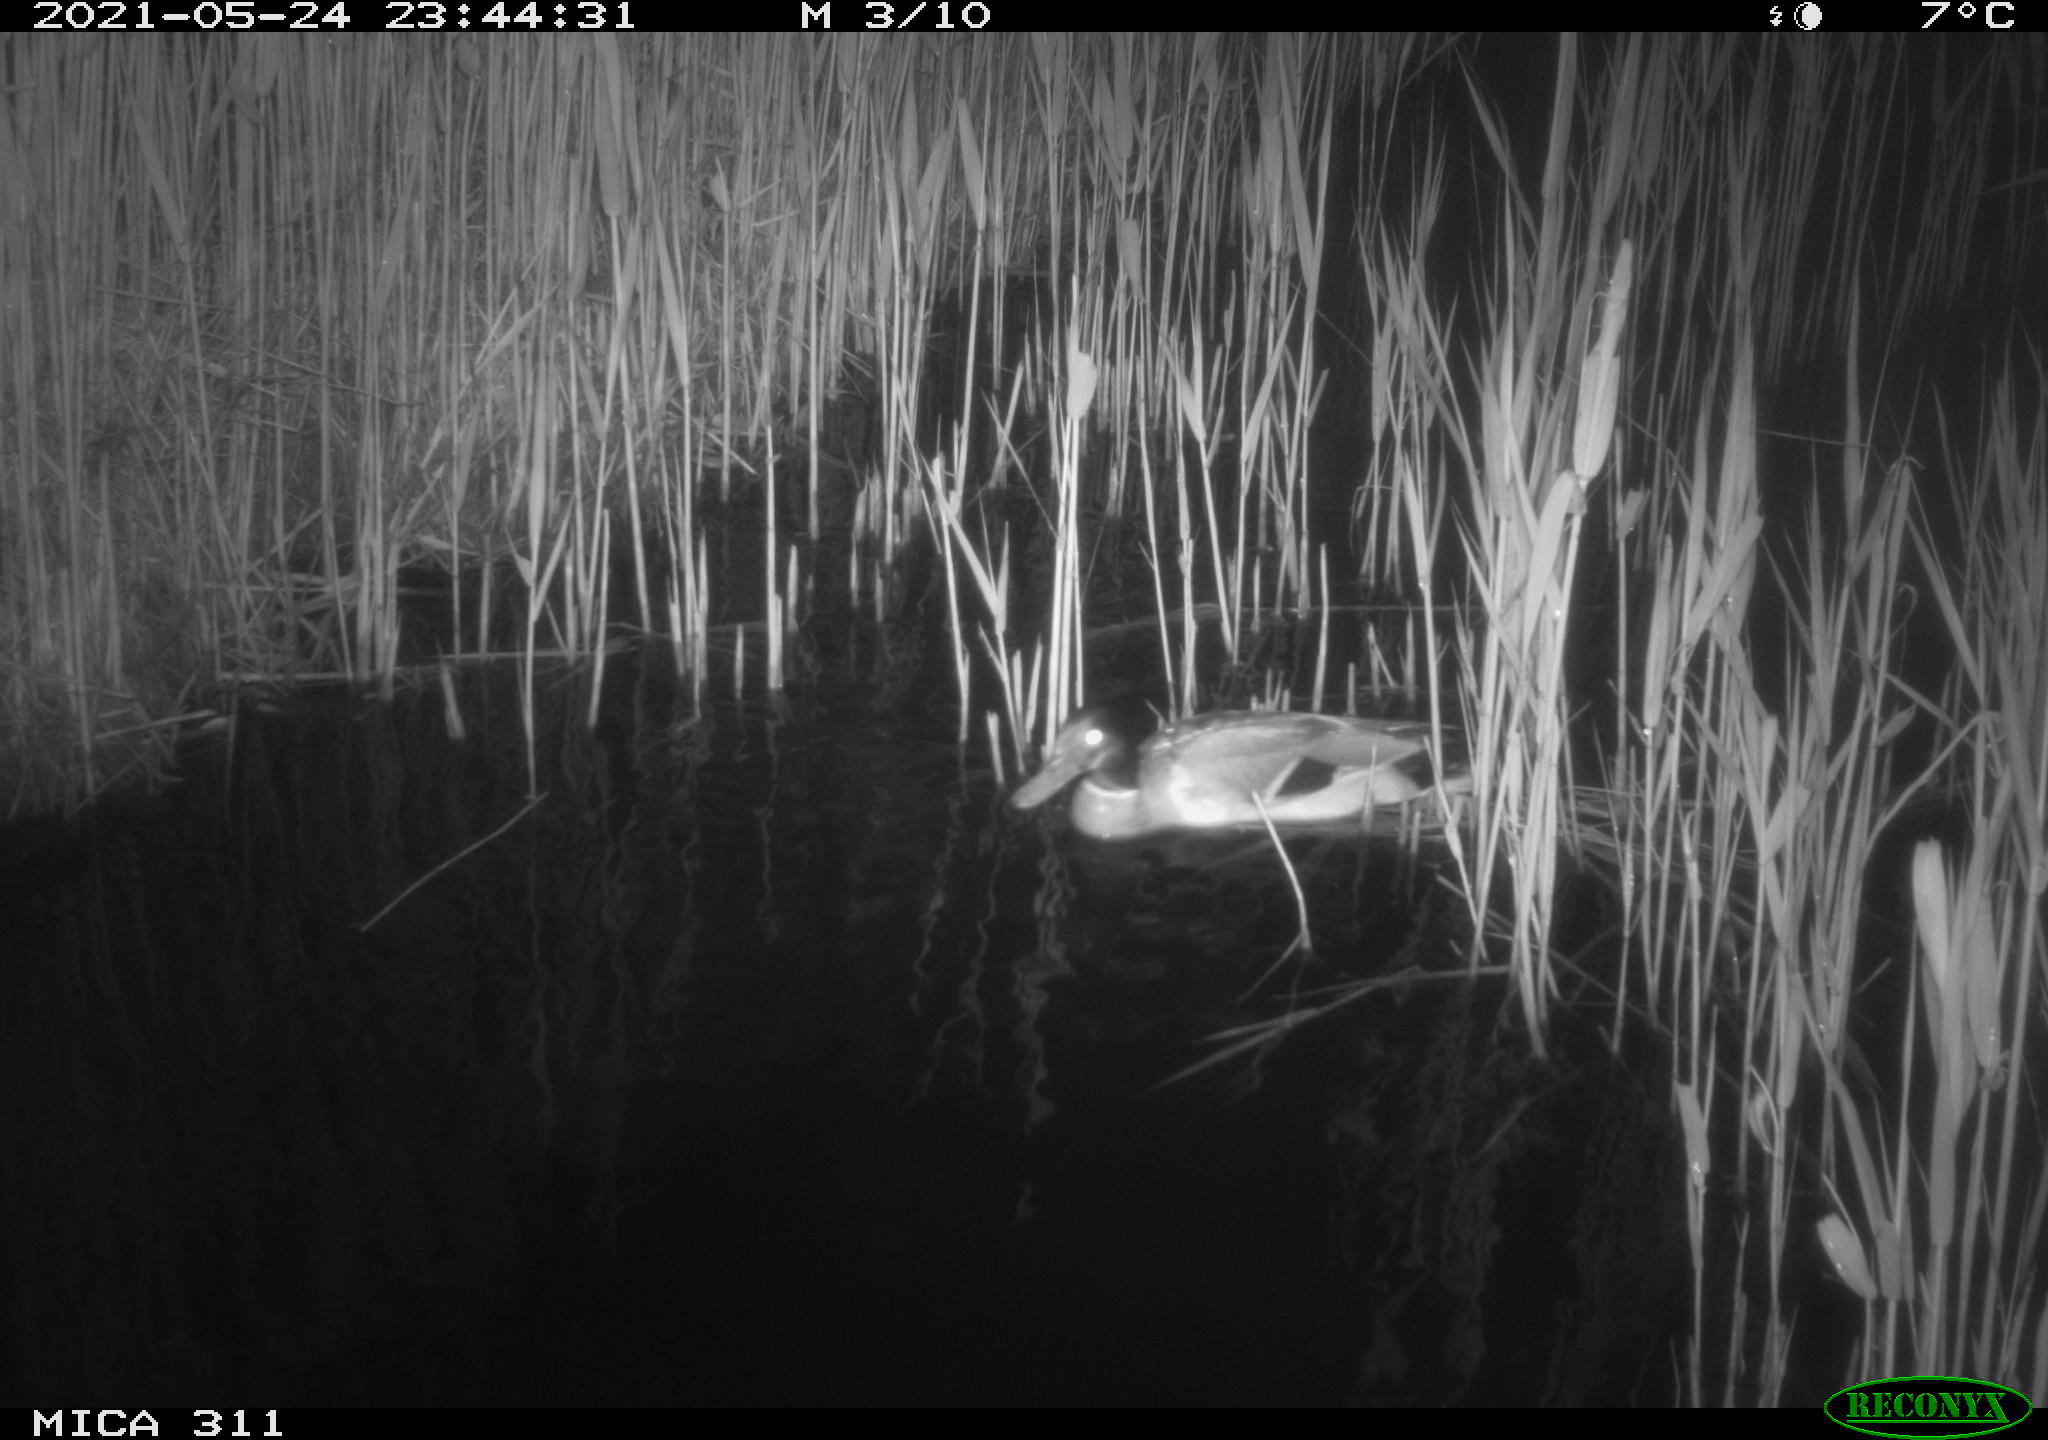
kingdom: Animalia
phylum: Chordata
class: Aves
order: Anseriformes
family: Anatidae
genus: Anas
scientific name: Anas platyrhynchos
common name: Mallard
